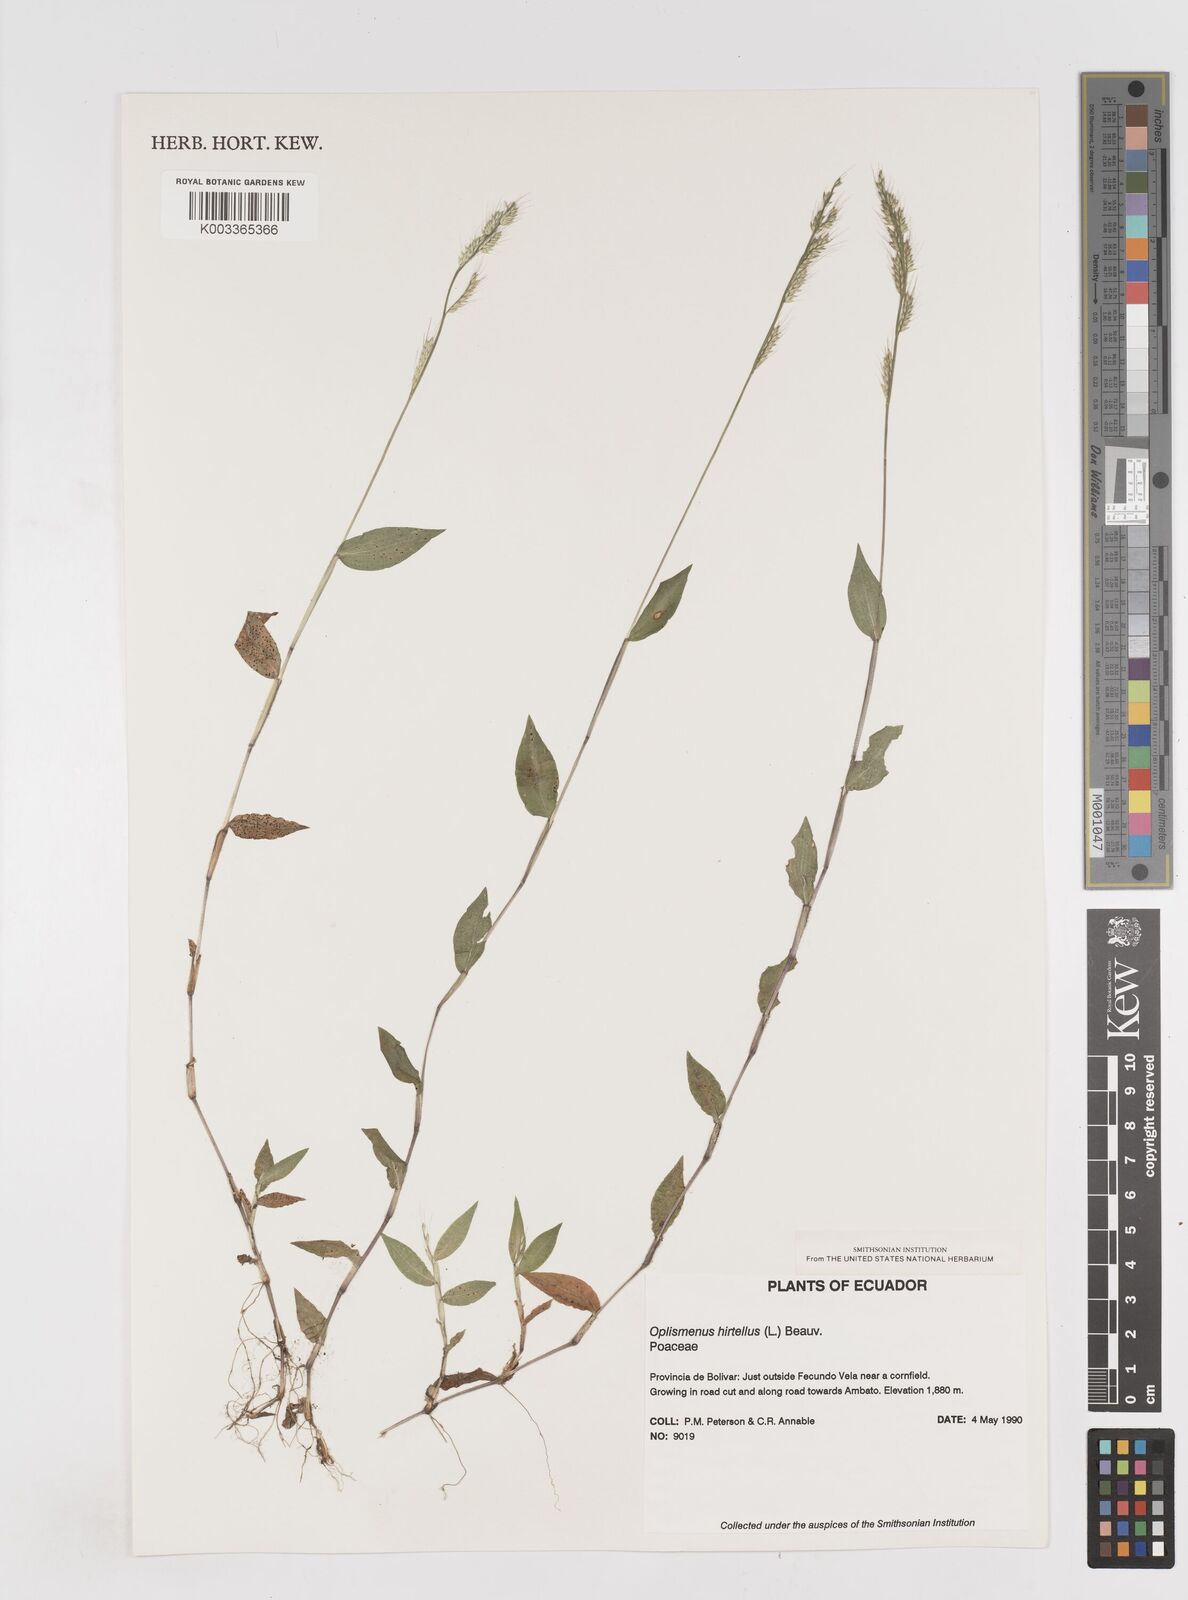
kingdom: Plantae
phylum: Tracheophyta
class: Liliopsida
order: Poales
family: Poaceae
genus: Oplismenus
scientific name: Oplismenus burmanni
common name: Burmann's basketgrass
